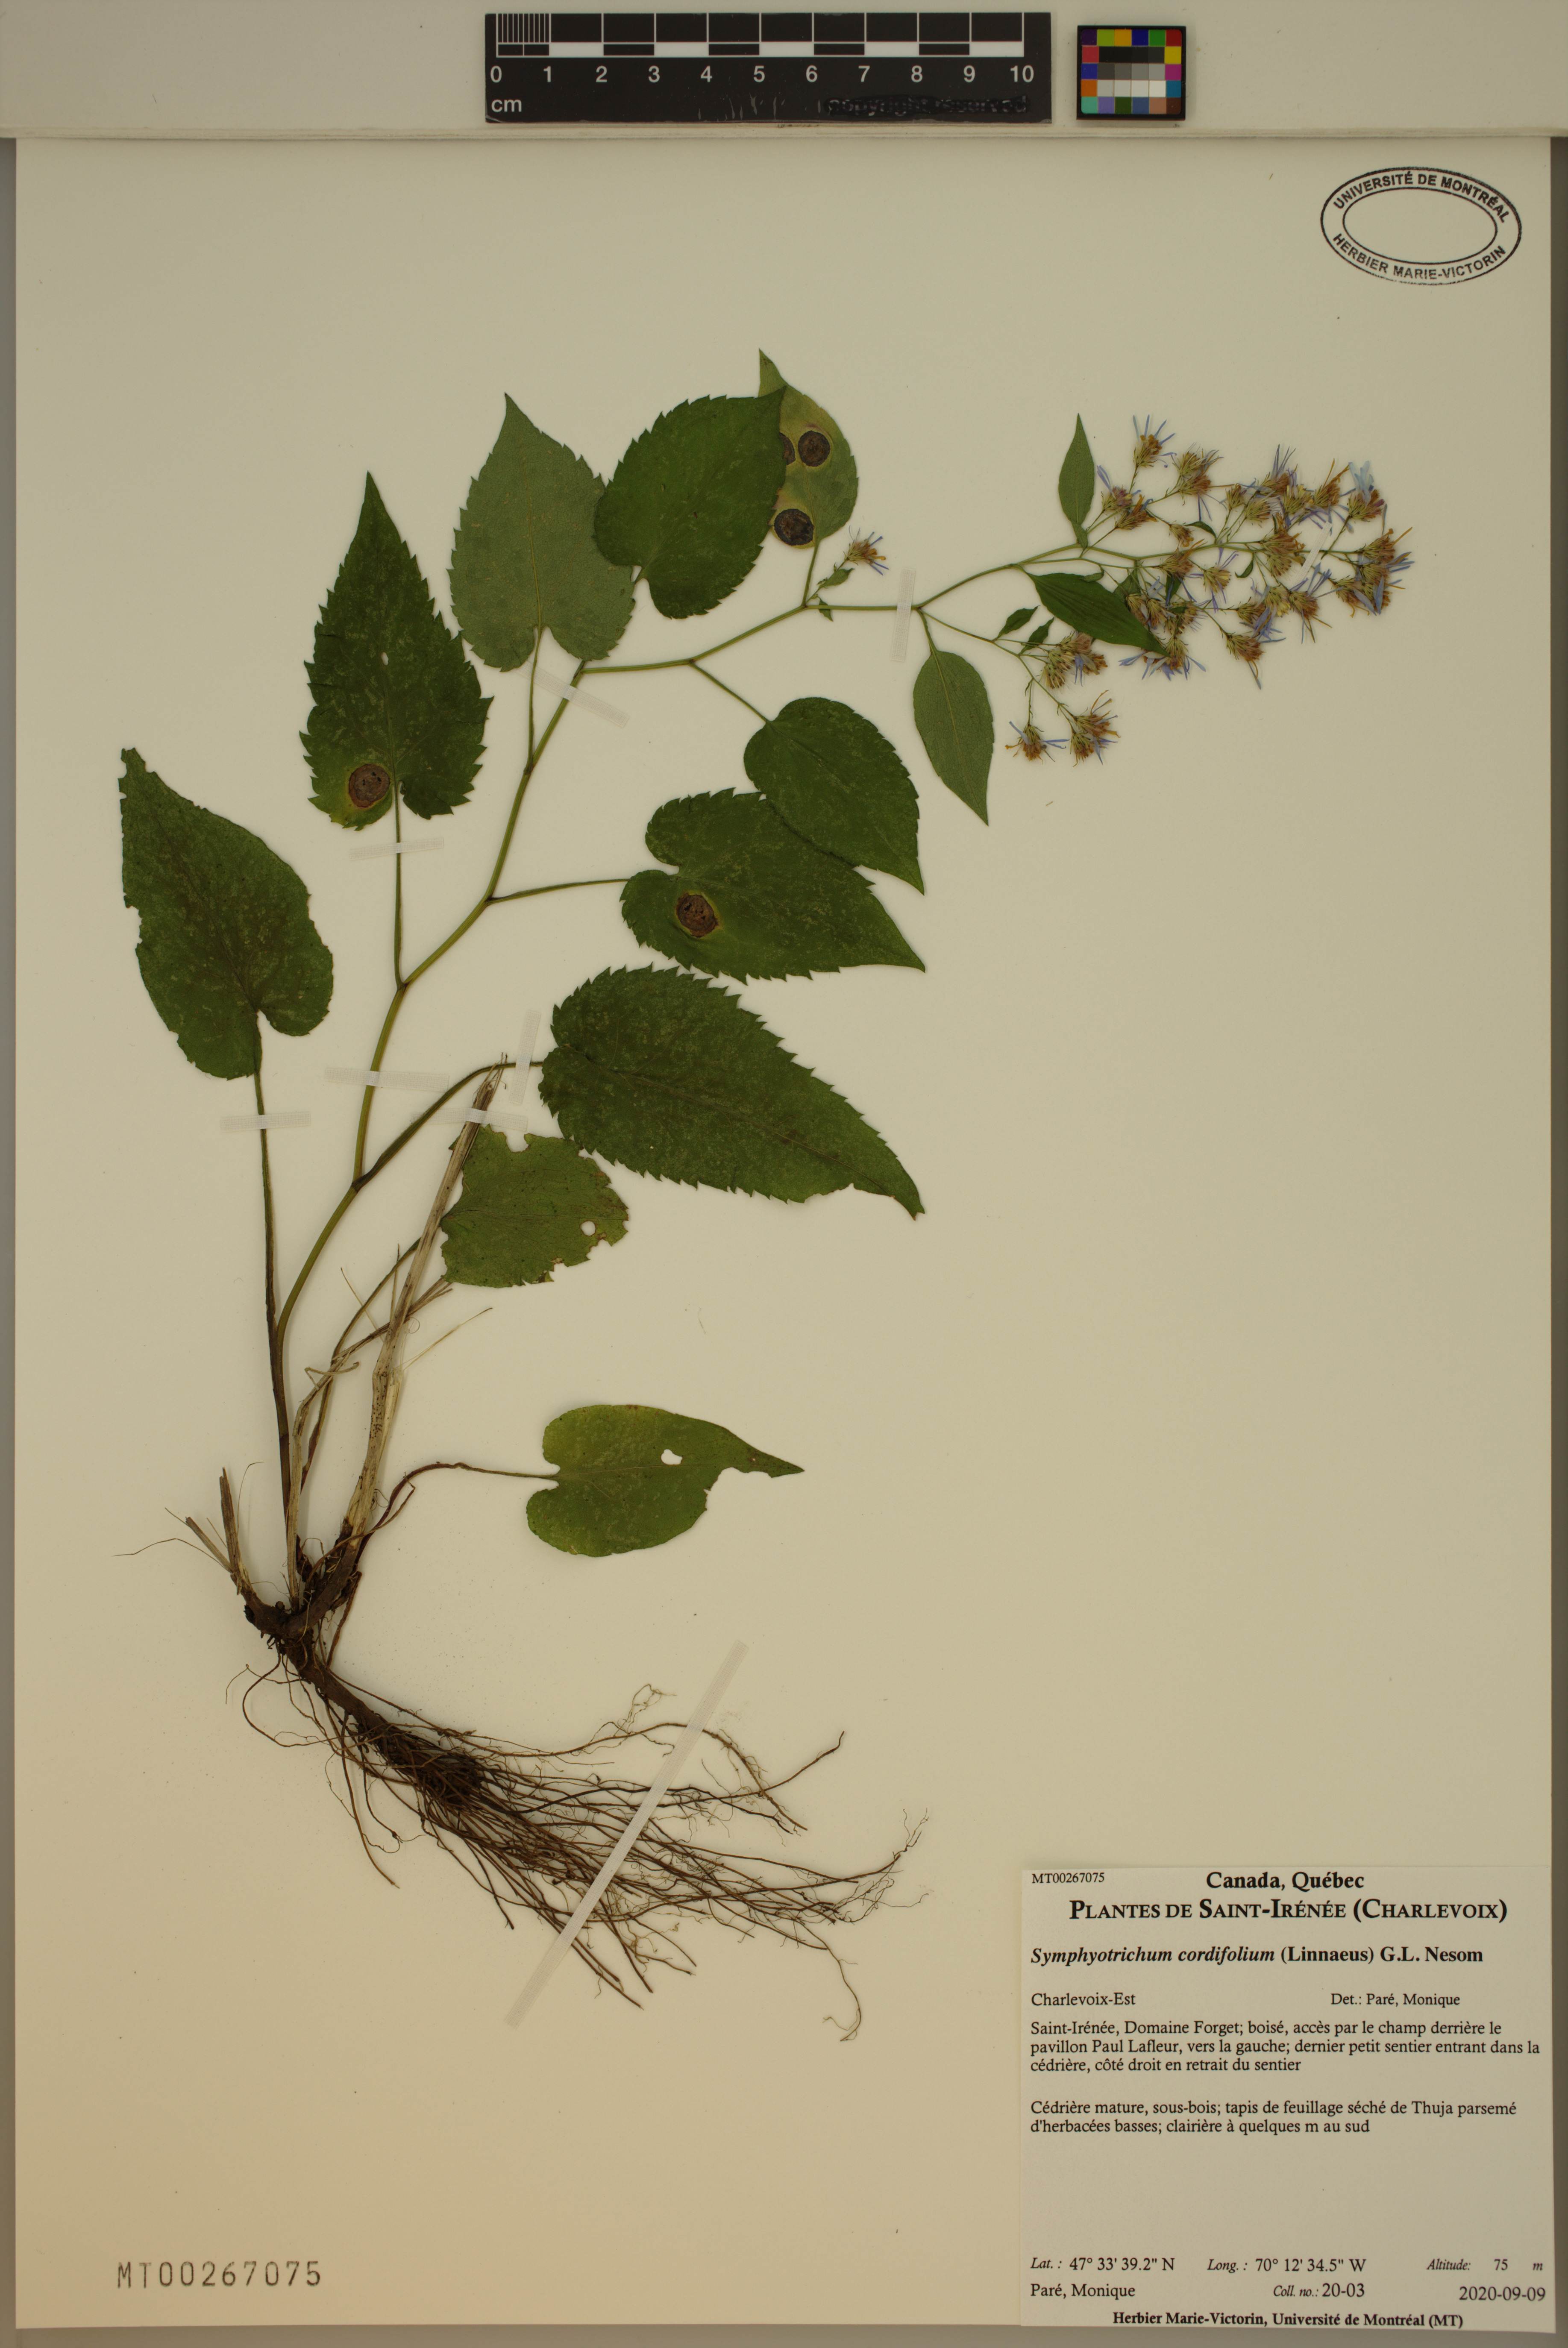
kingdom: Plantae
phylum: Tracheophyta
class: Magnoliopsida
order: Asterales
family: Asteraceae
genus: Symphyotrichum
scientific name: Symphyotrichum cordifolium
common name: Beeweed
